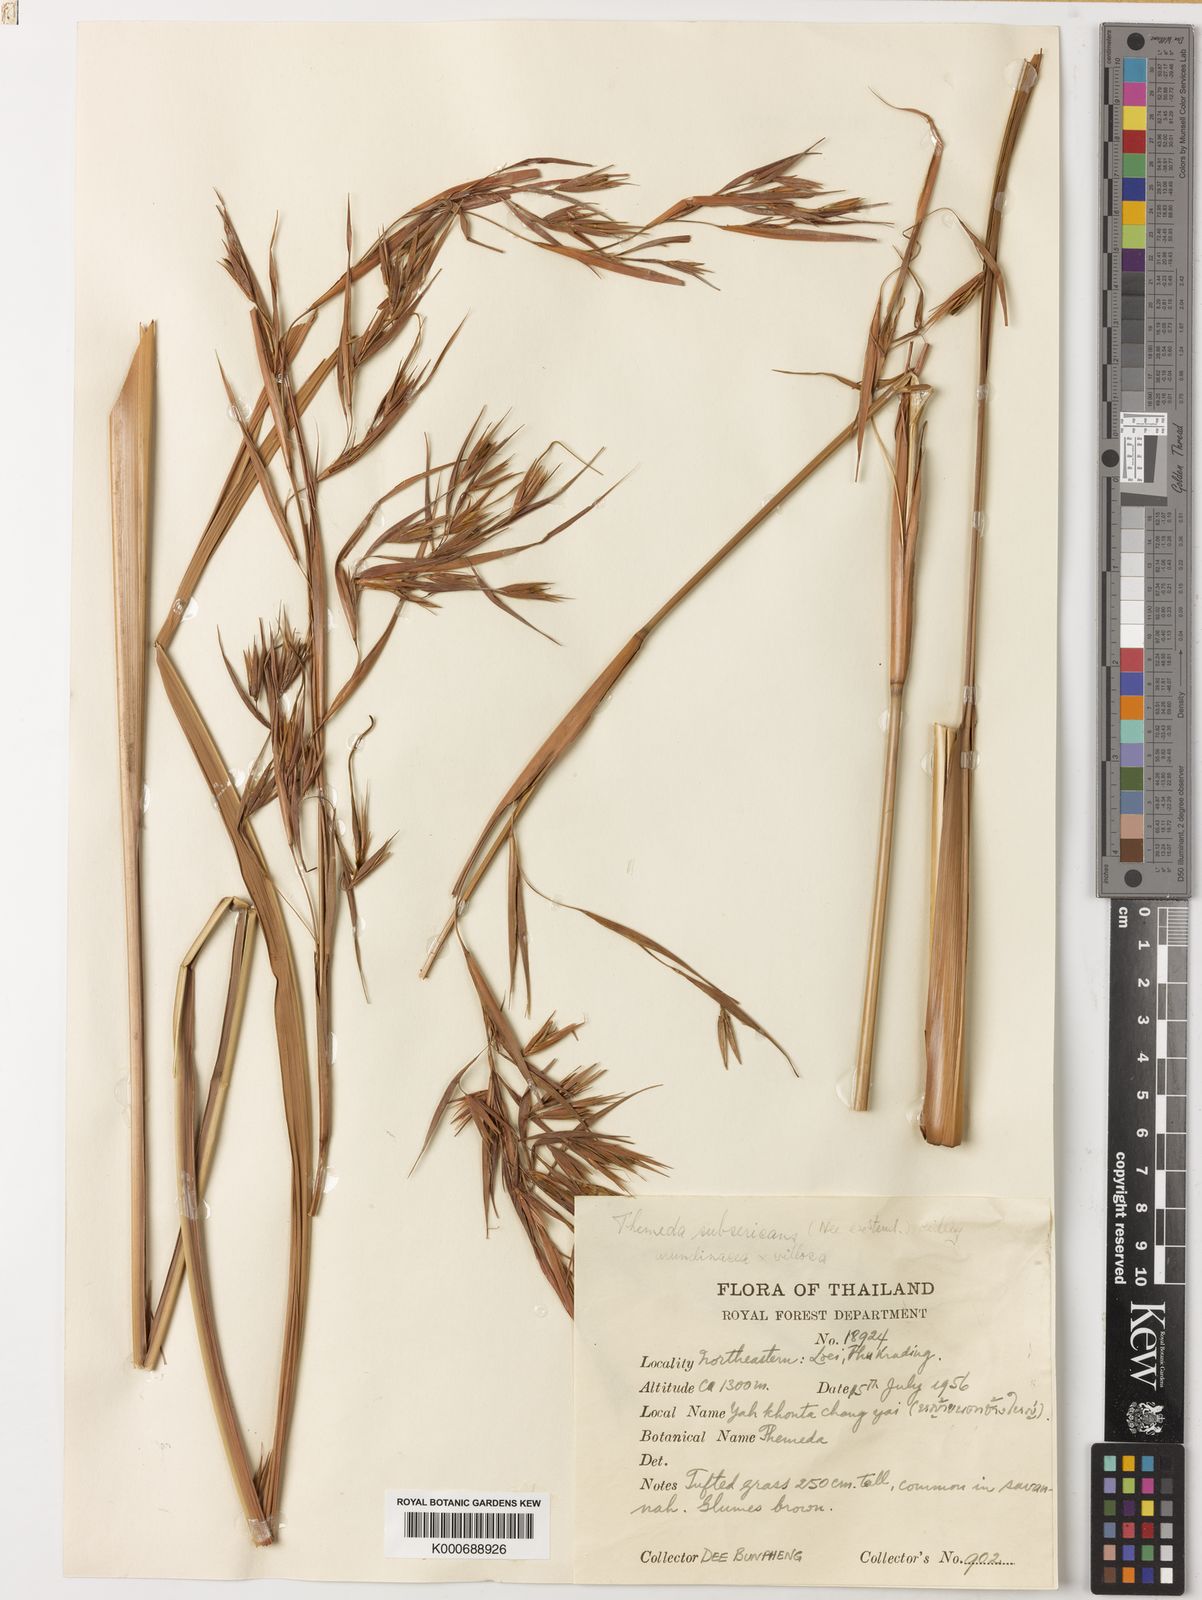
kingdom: Plantae
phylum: Tracheophyta
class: Liliopsida
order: Poales
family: Poaceae
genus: Themeda
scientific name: Themeda arundinacea
